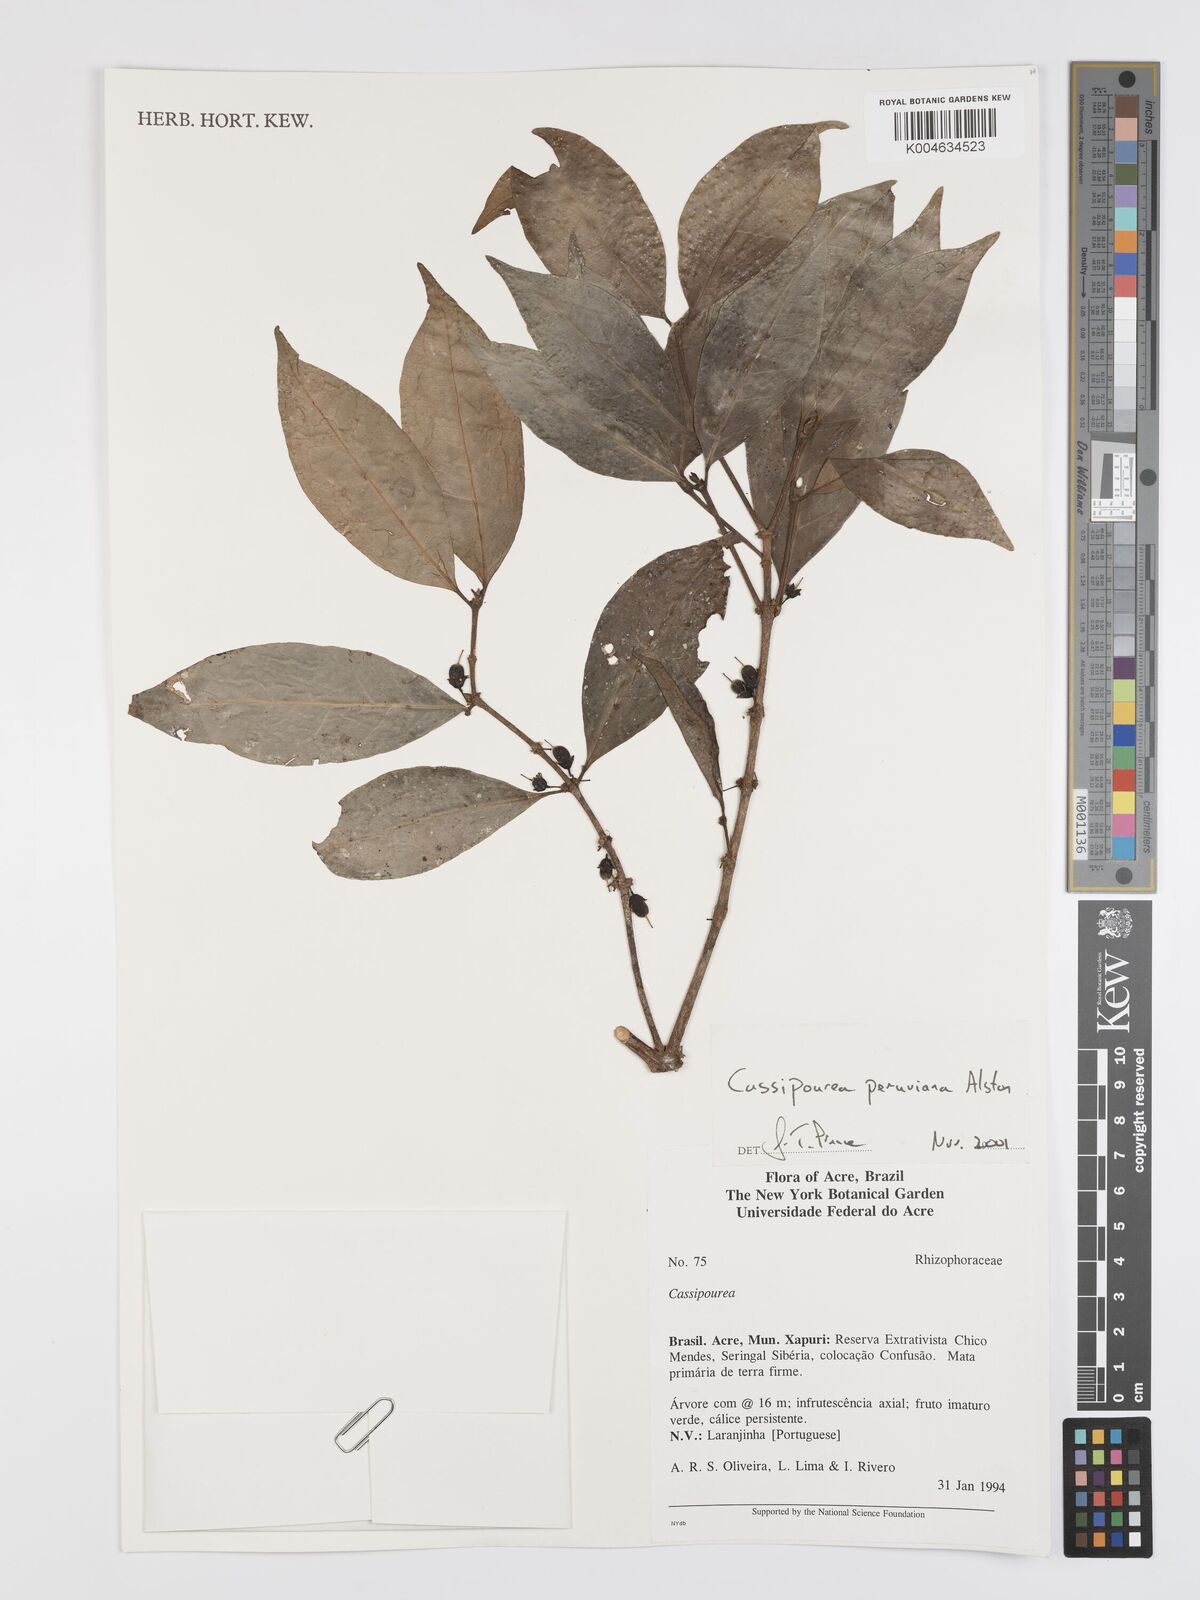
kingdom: Plantae
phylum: Tracheophyta
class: Magnoliopsida
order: Malpighiales
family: Rhizophoraceae
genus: Cassipourea
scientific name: Cassipourea peruviana
